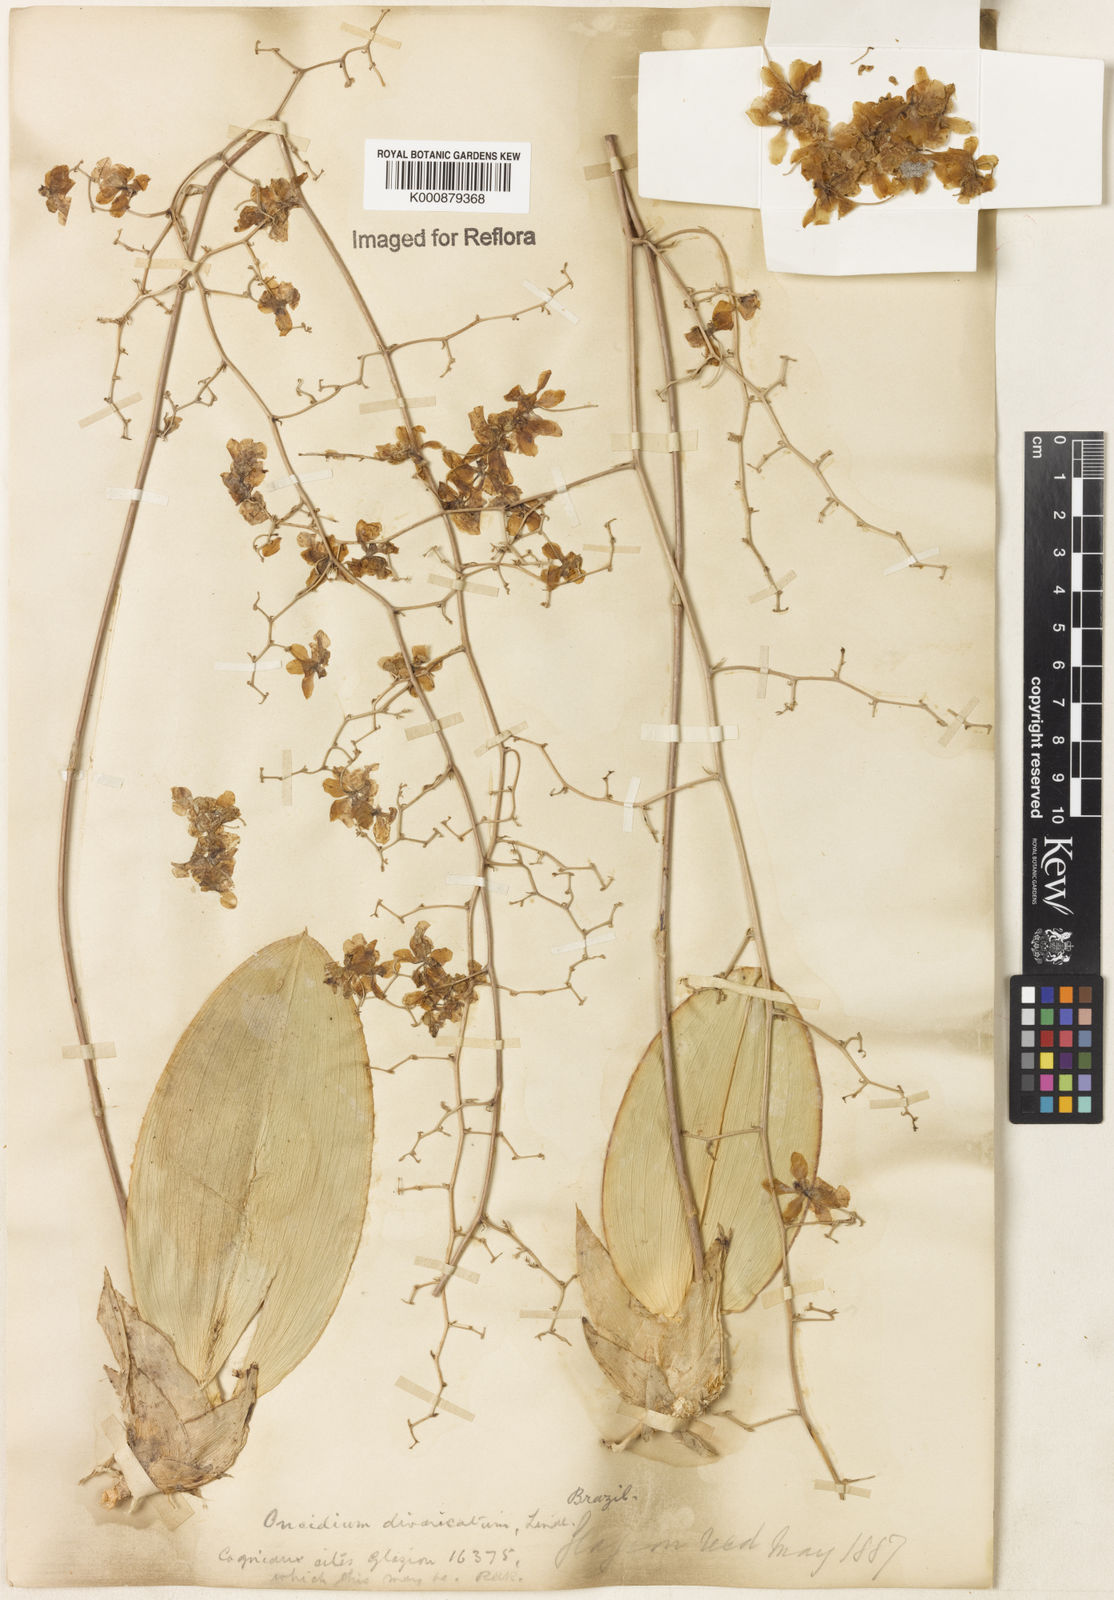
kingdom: Plantae
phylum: Tracheophyta
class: Liliopsida
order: Asparagales
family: Orchidaceae
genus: Grandiphyllum
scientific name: Grandiphyllum divaricatum
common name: Mule-ear orchid
